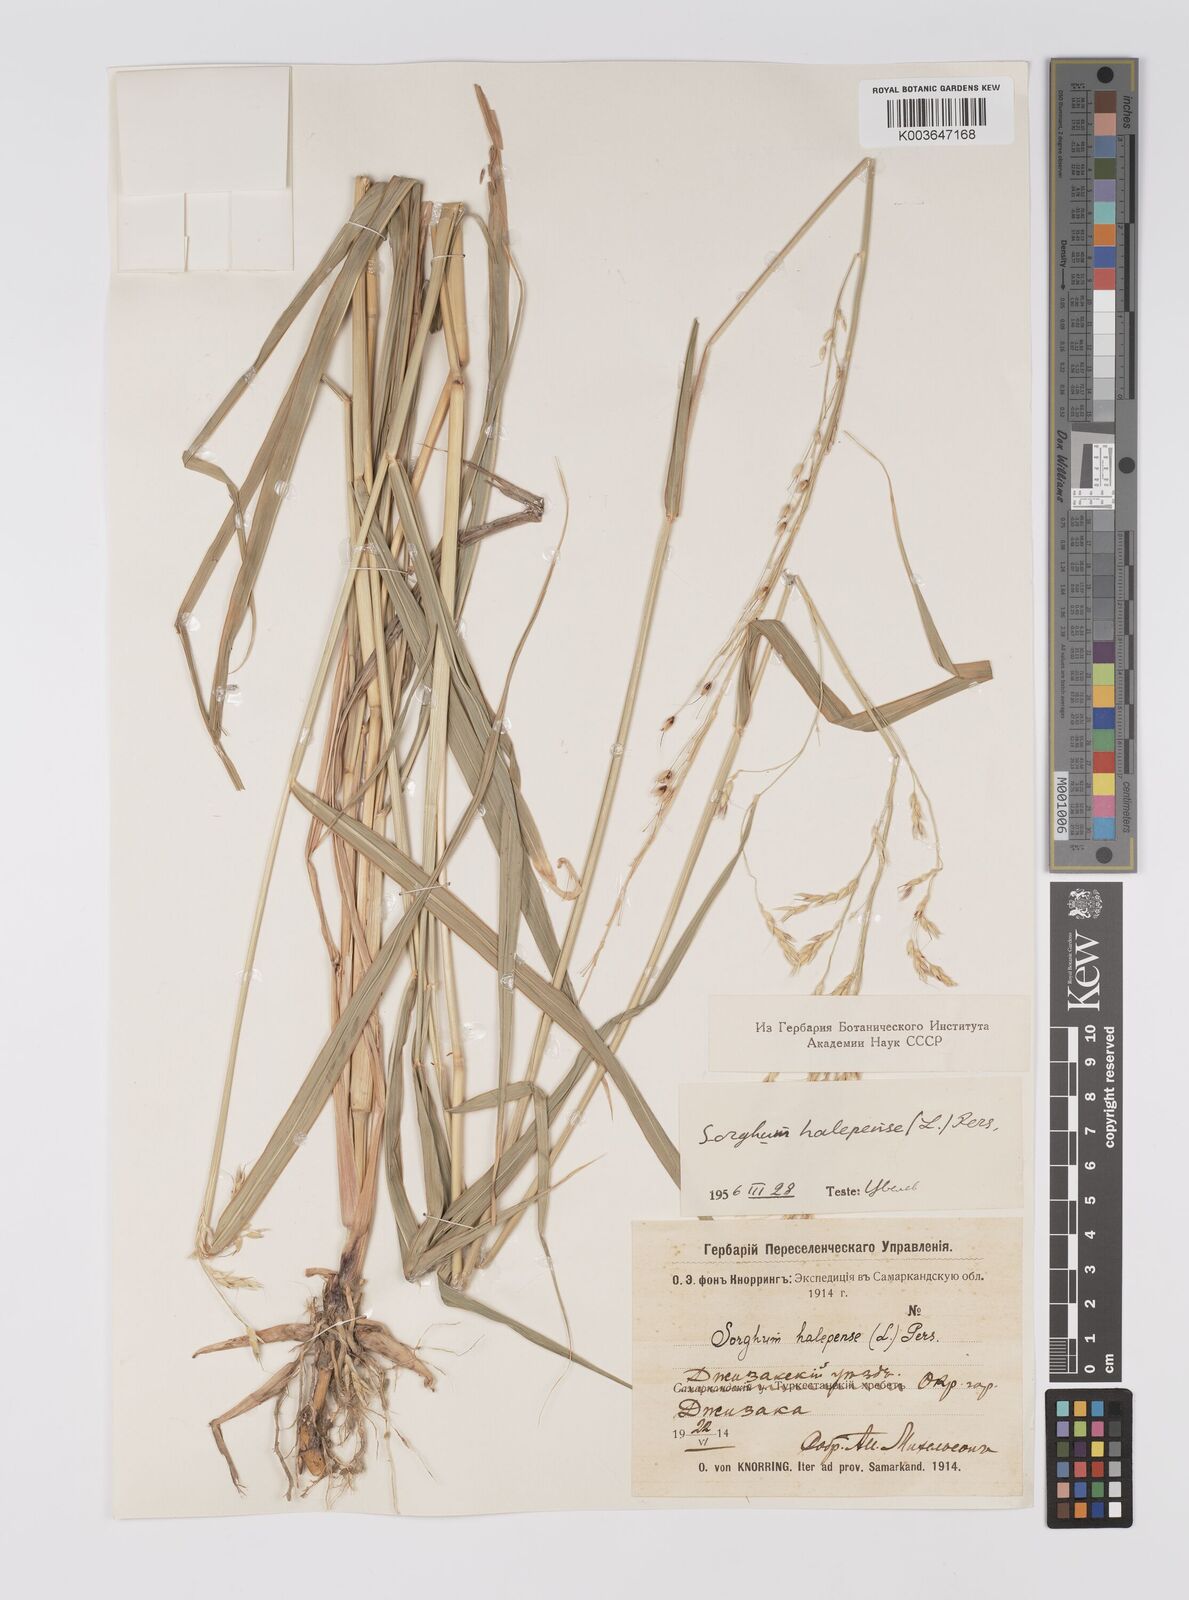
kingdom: Plantae
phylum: Tracheophyta
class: Liliopsida
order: Poales
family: Poaceae
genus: Sorghum
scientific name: Sorghum halepense
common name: Johnson-grass
